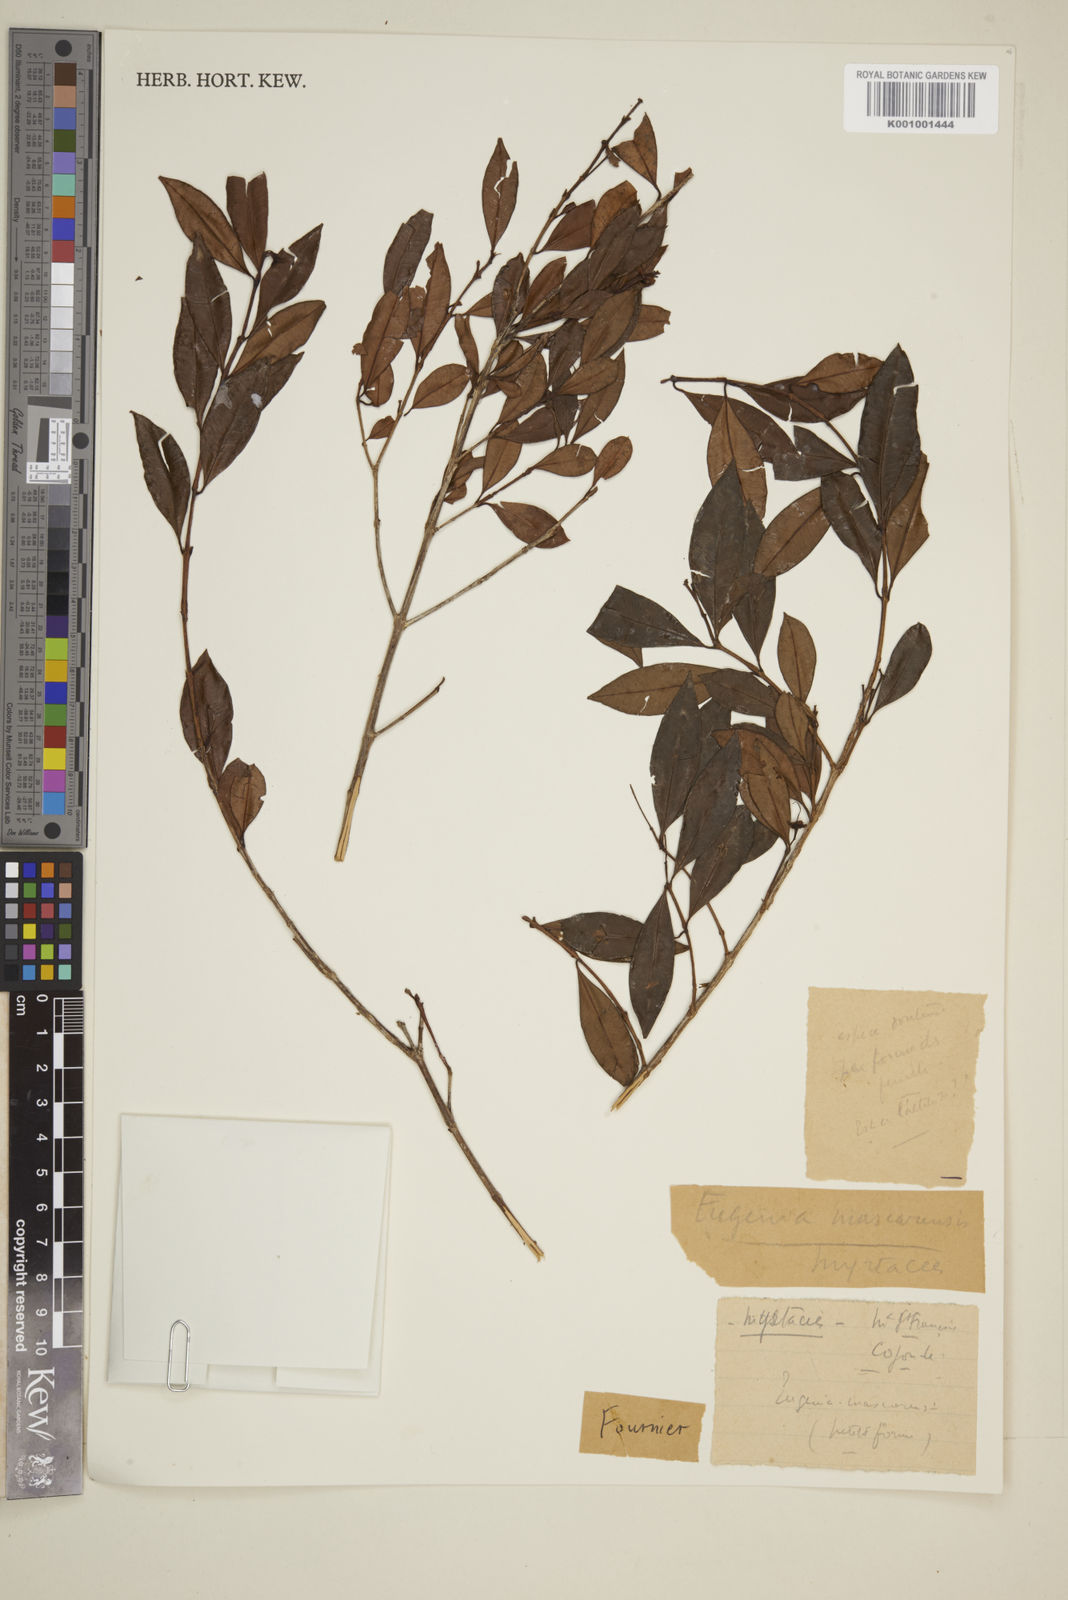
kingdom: Plantae
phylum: Tracheophyta
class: Magnoliopsida
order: Myrtales
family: Myrtaceae
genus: Syzygium
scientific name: Syzygium cymosum
